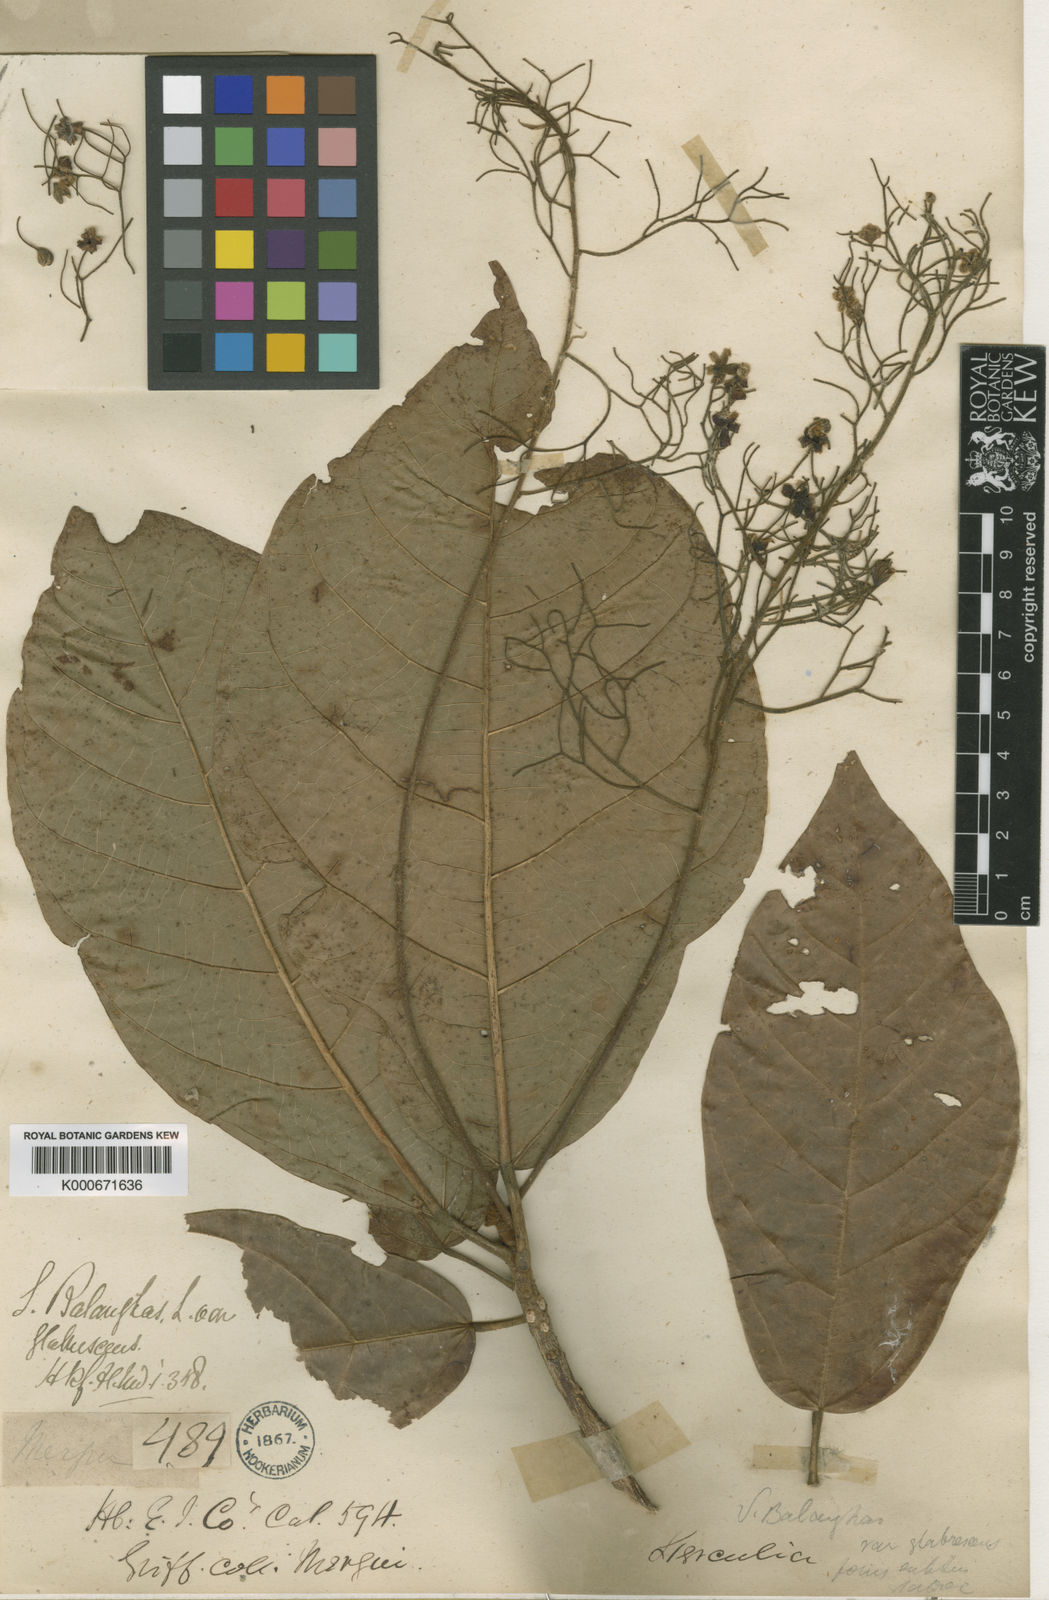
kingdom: Plantae
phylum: Tracheophyta
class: Magnoliopsida
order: Malvales
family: Malvaceae
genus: Sterculia
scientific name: Sterculia balanghas
